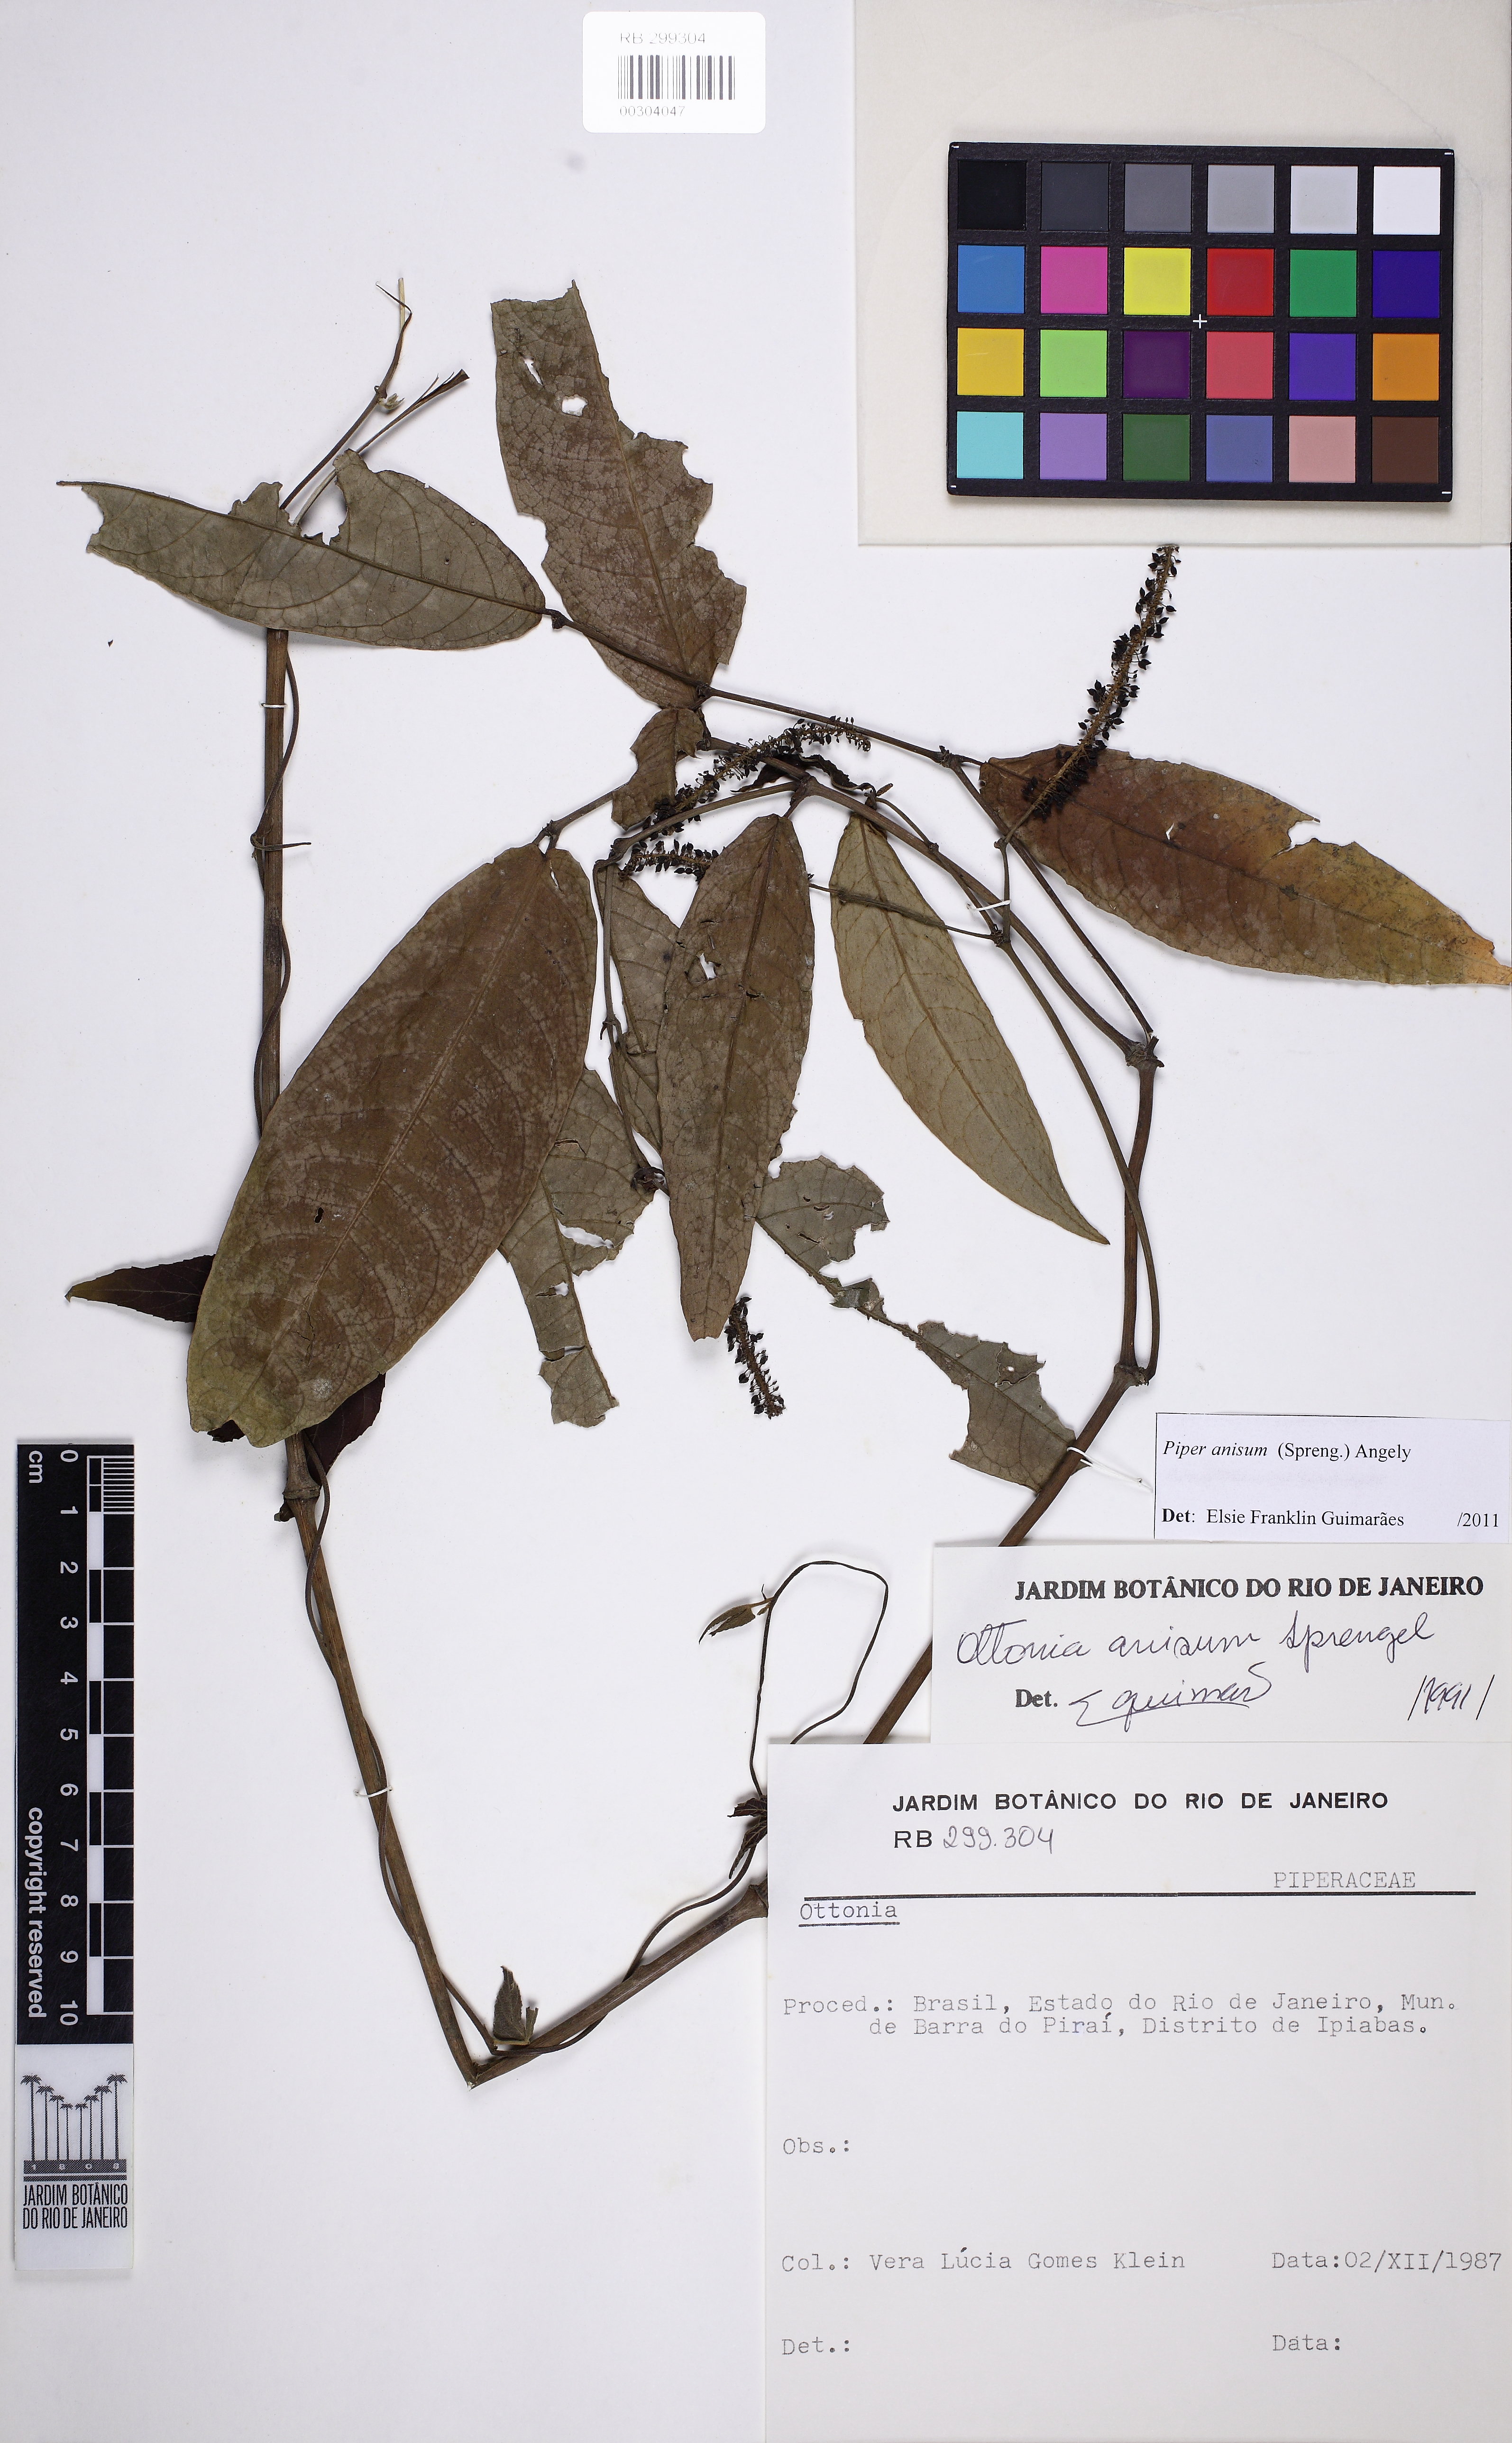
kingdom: Plantae
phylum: Tracheophyta
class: Magnoliopsida
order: Piperales
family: Piperaceae
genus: Piper
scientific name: Piper anisum
